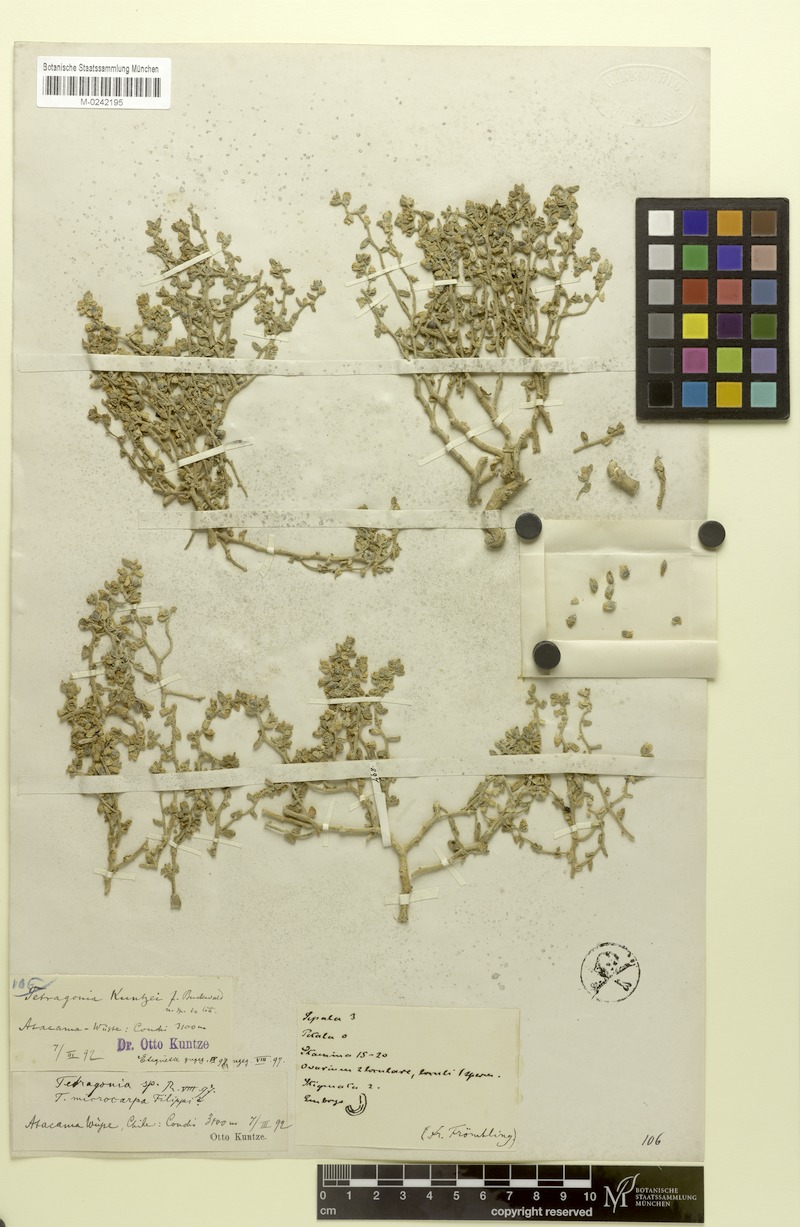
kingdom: Plantae
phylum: Tracheophyta
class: Magnoliopsida
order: Caryophyllales
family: Aizoaceae
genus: Tetragonia
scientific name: Tetragonia microcarpa
